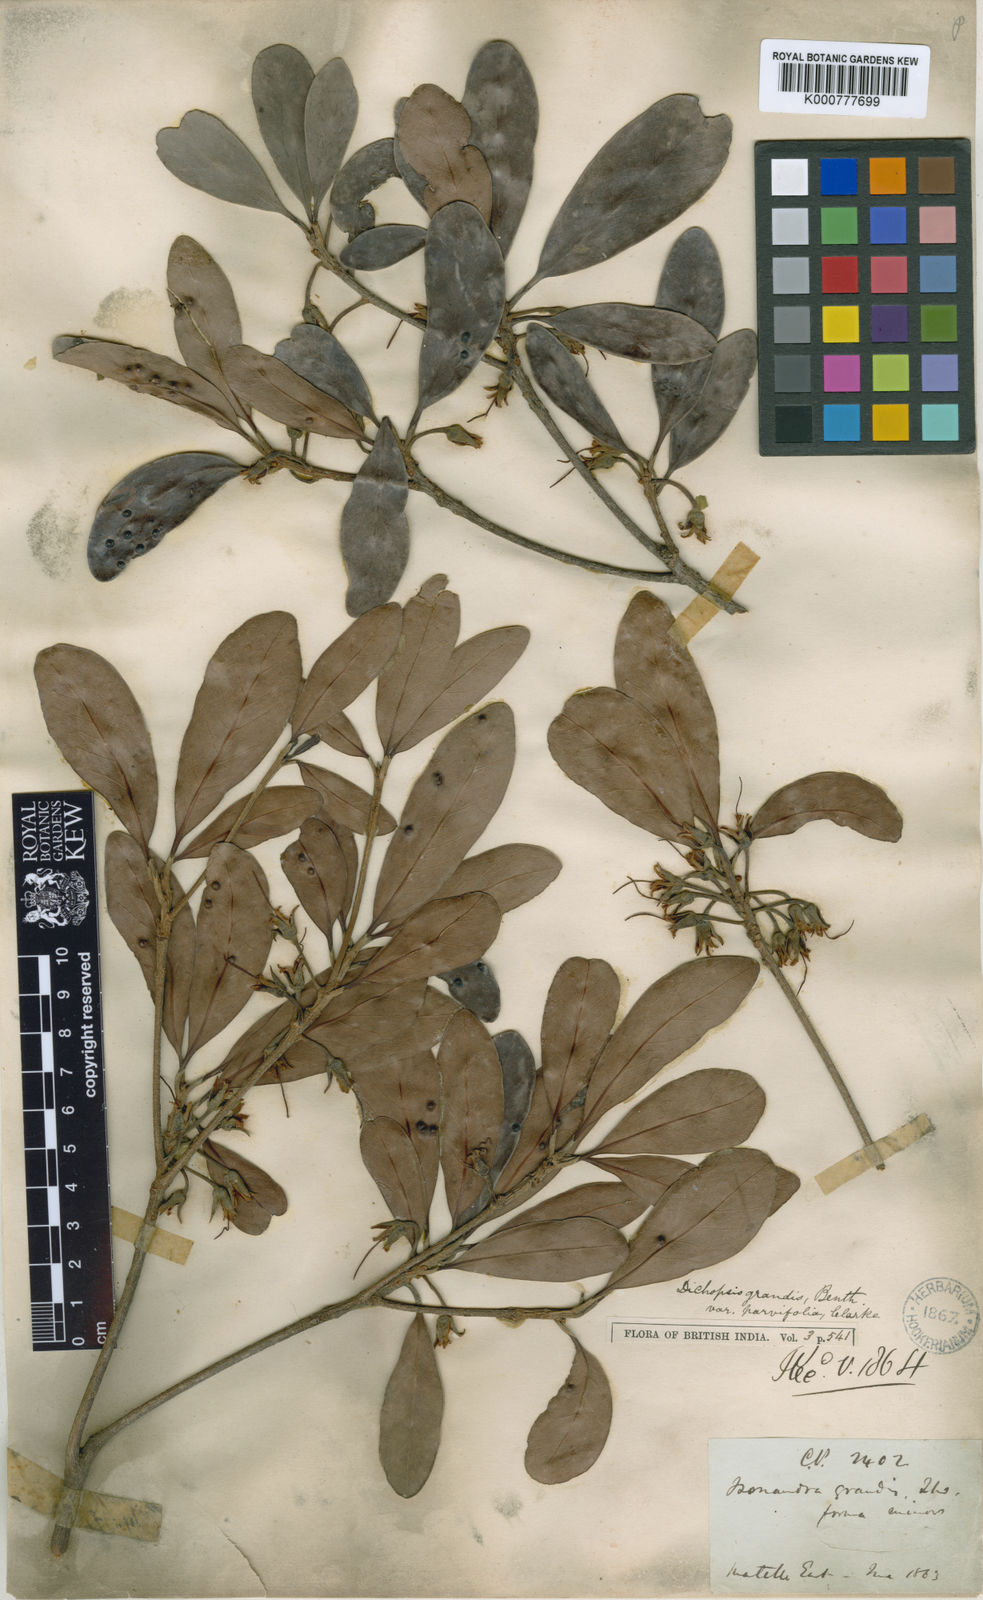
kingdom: Plantae
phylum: Tracheophyta
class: Magnoliopsida
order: Ericales
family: Sapotaceae
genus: Palaquium
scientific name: Palaquium grande
